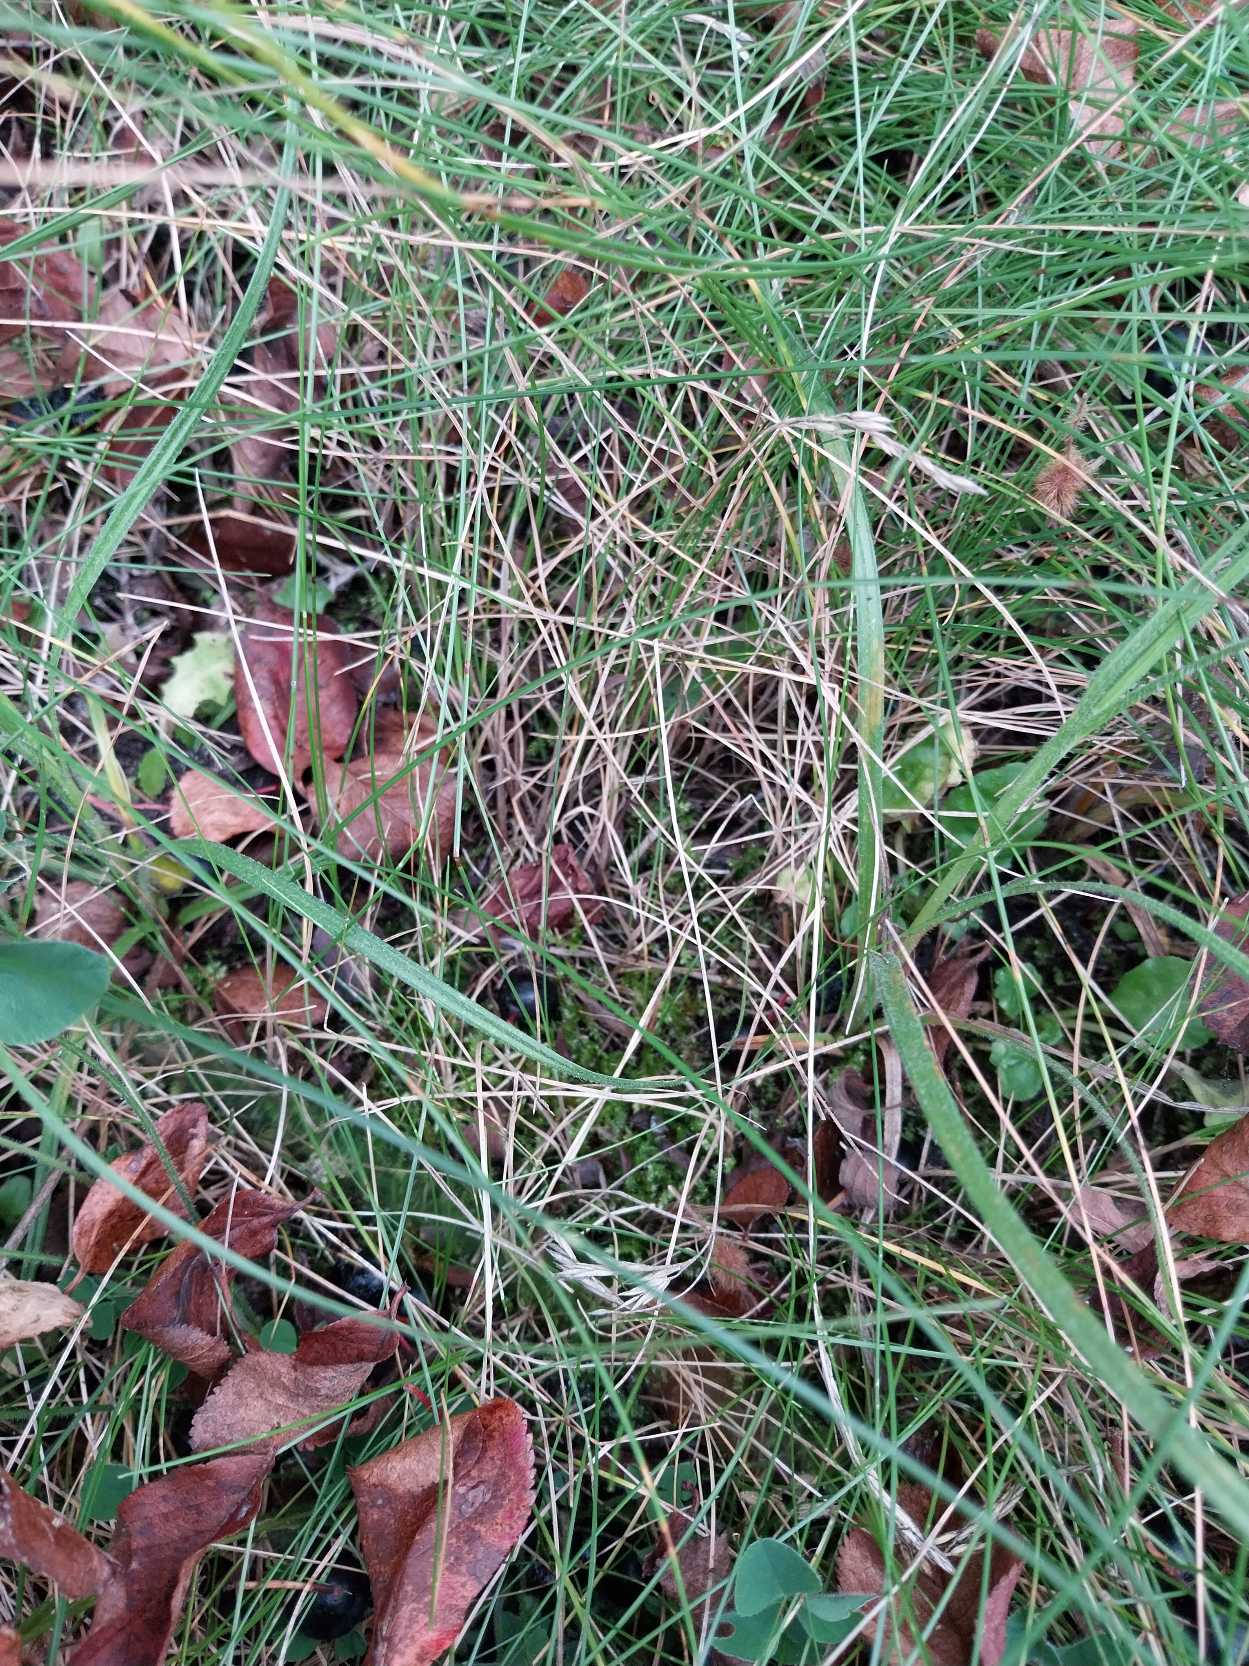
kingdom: Plantae
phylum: Tracheophyta
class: Liliopsida
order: Poales
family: Poaceae
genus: Festuca
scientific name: Festuca rubra
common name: Rød svingel
